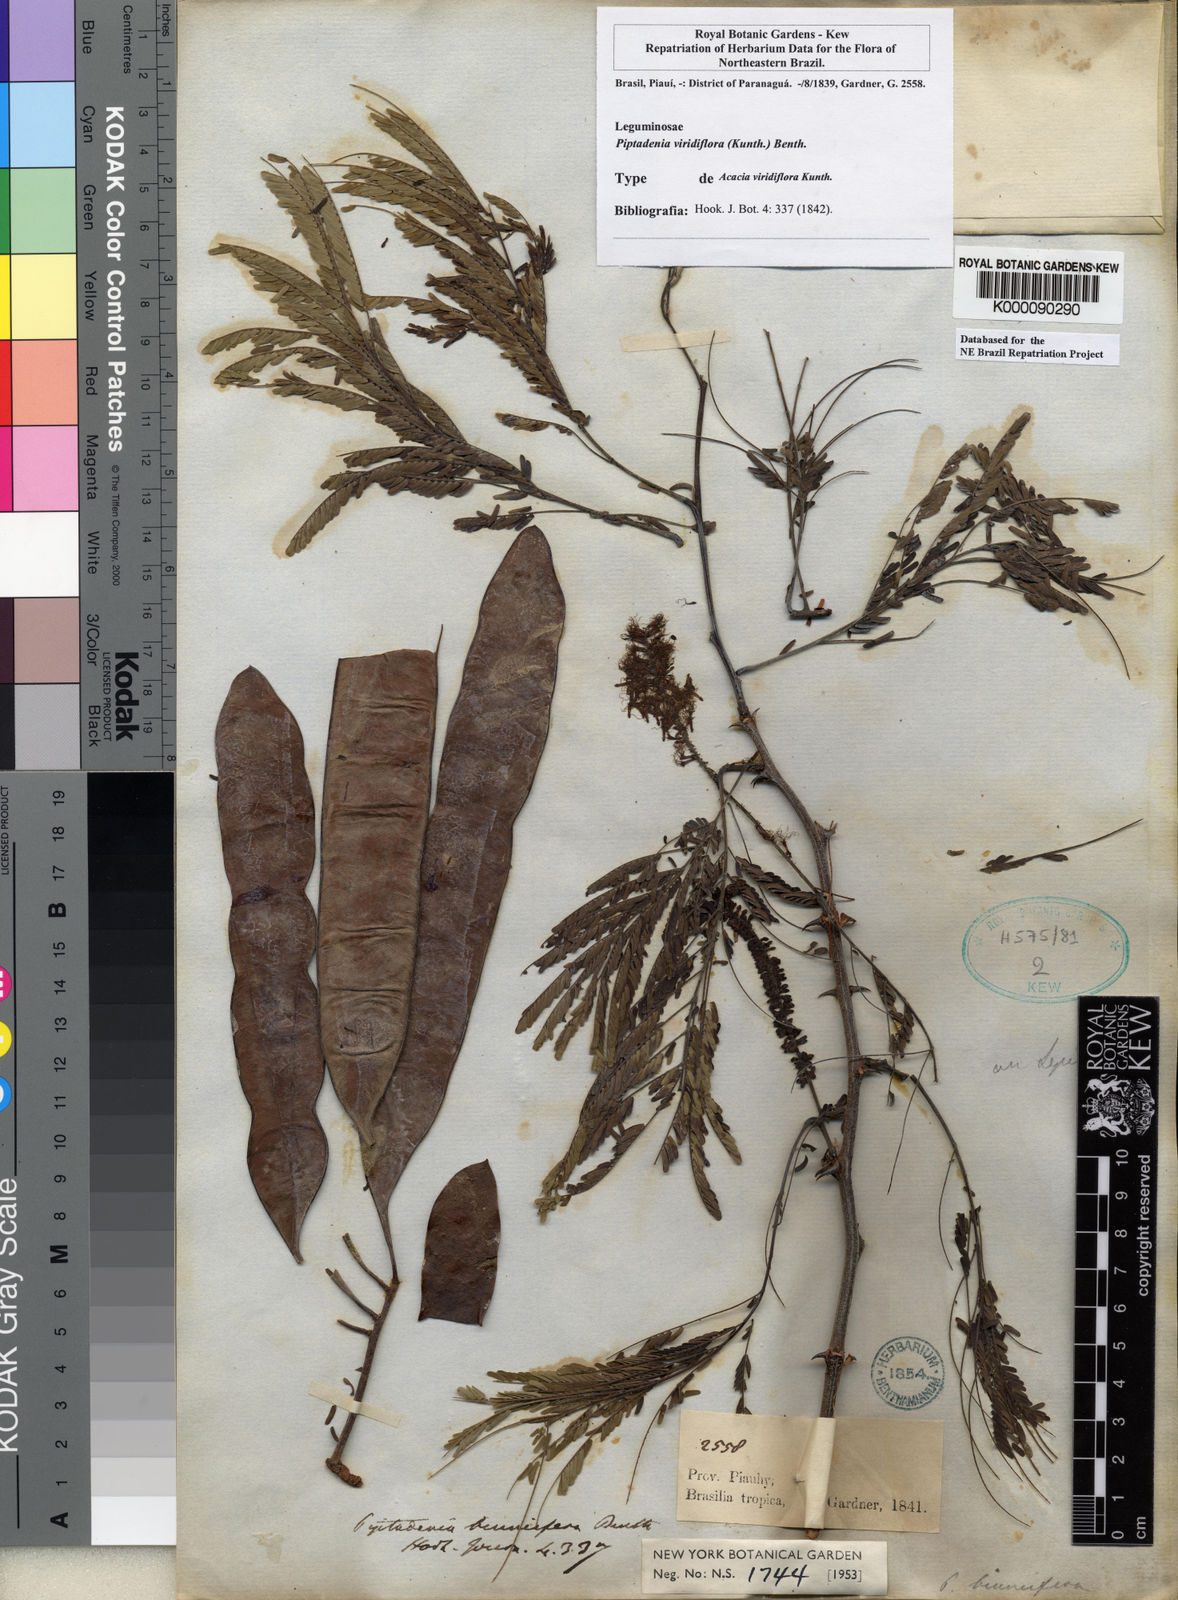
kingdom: Plantae
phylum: Tracheophyta
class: Magnoliopsida
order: Fabales
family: Fabaceae
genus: Lachesiodendron
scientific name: Lachesiodendron viridiflorum
